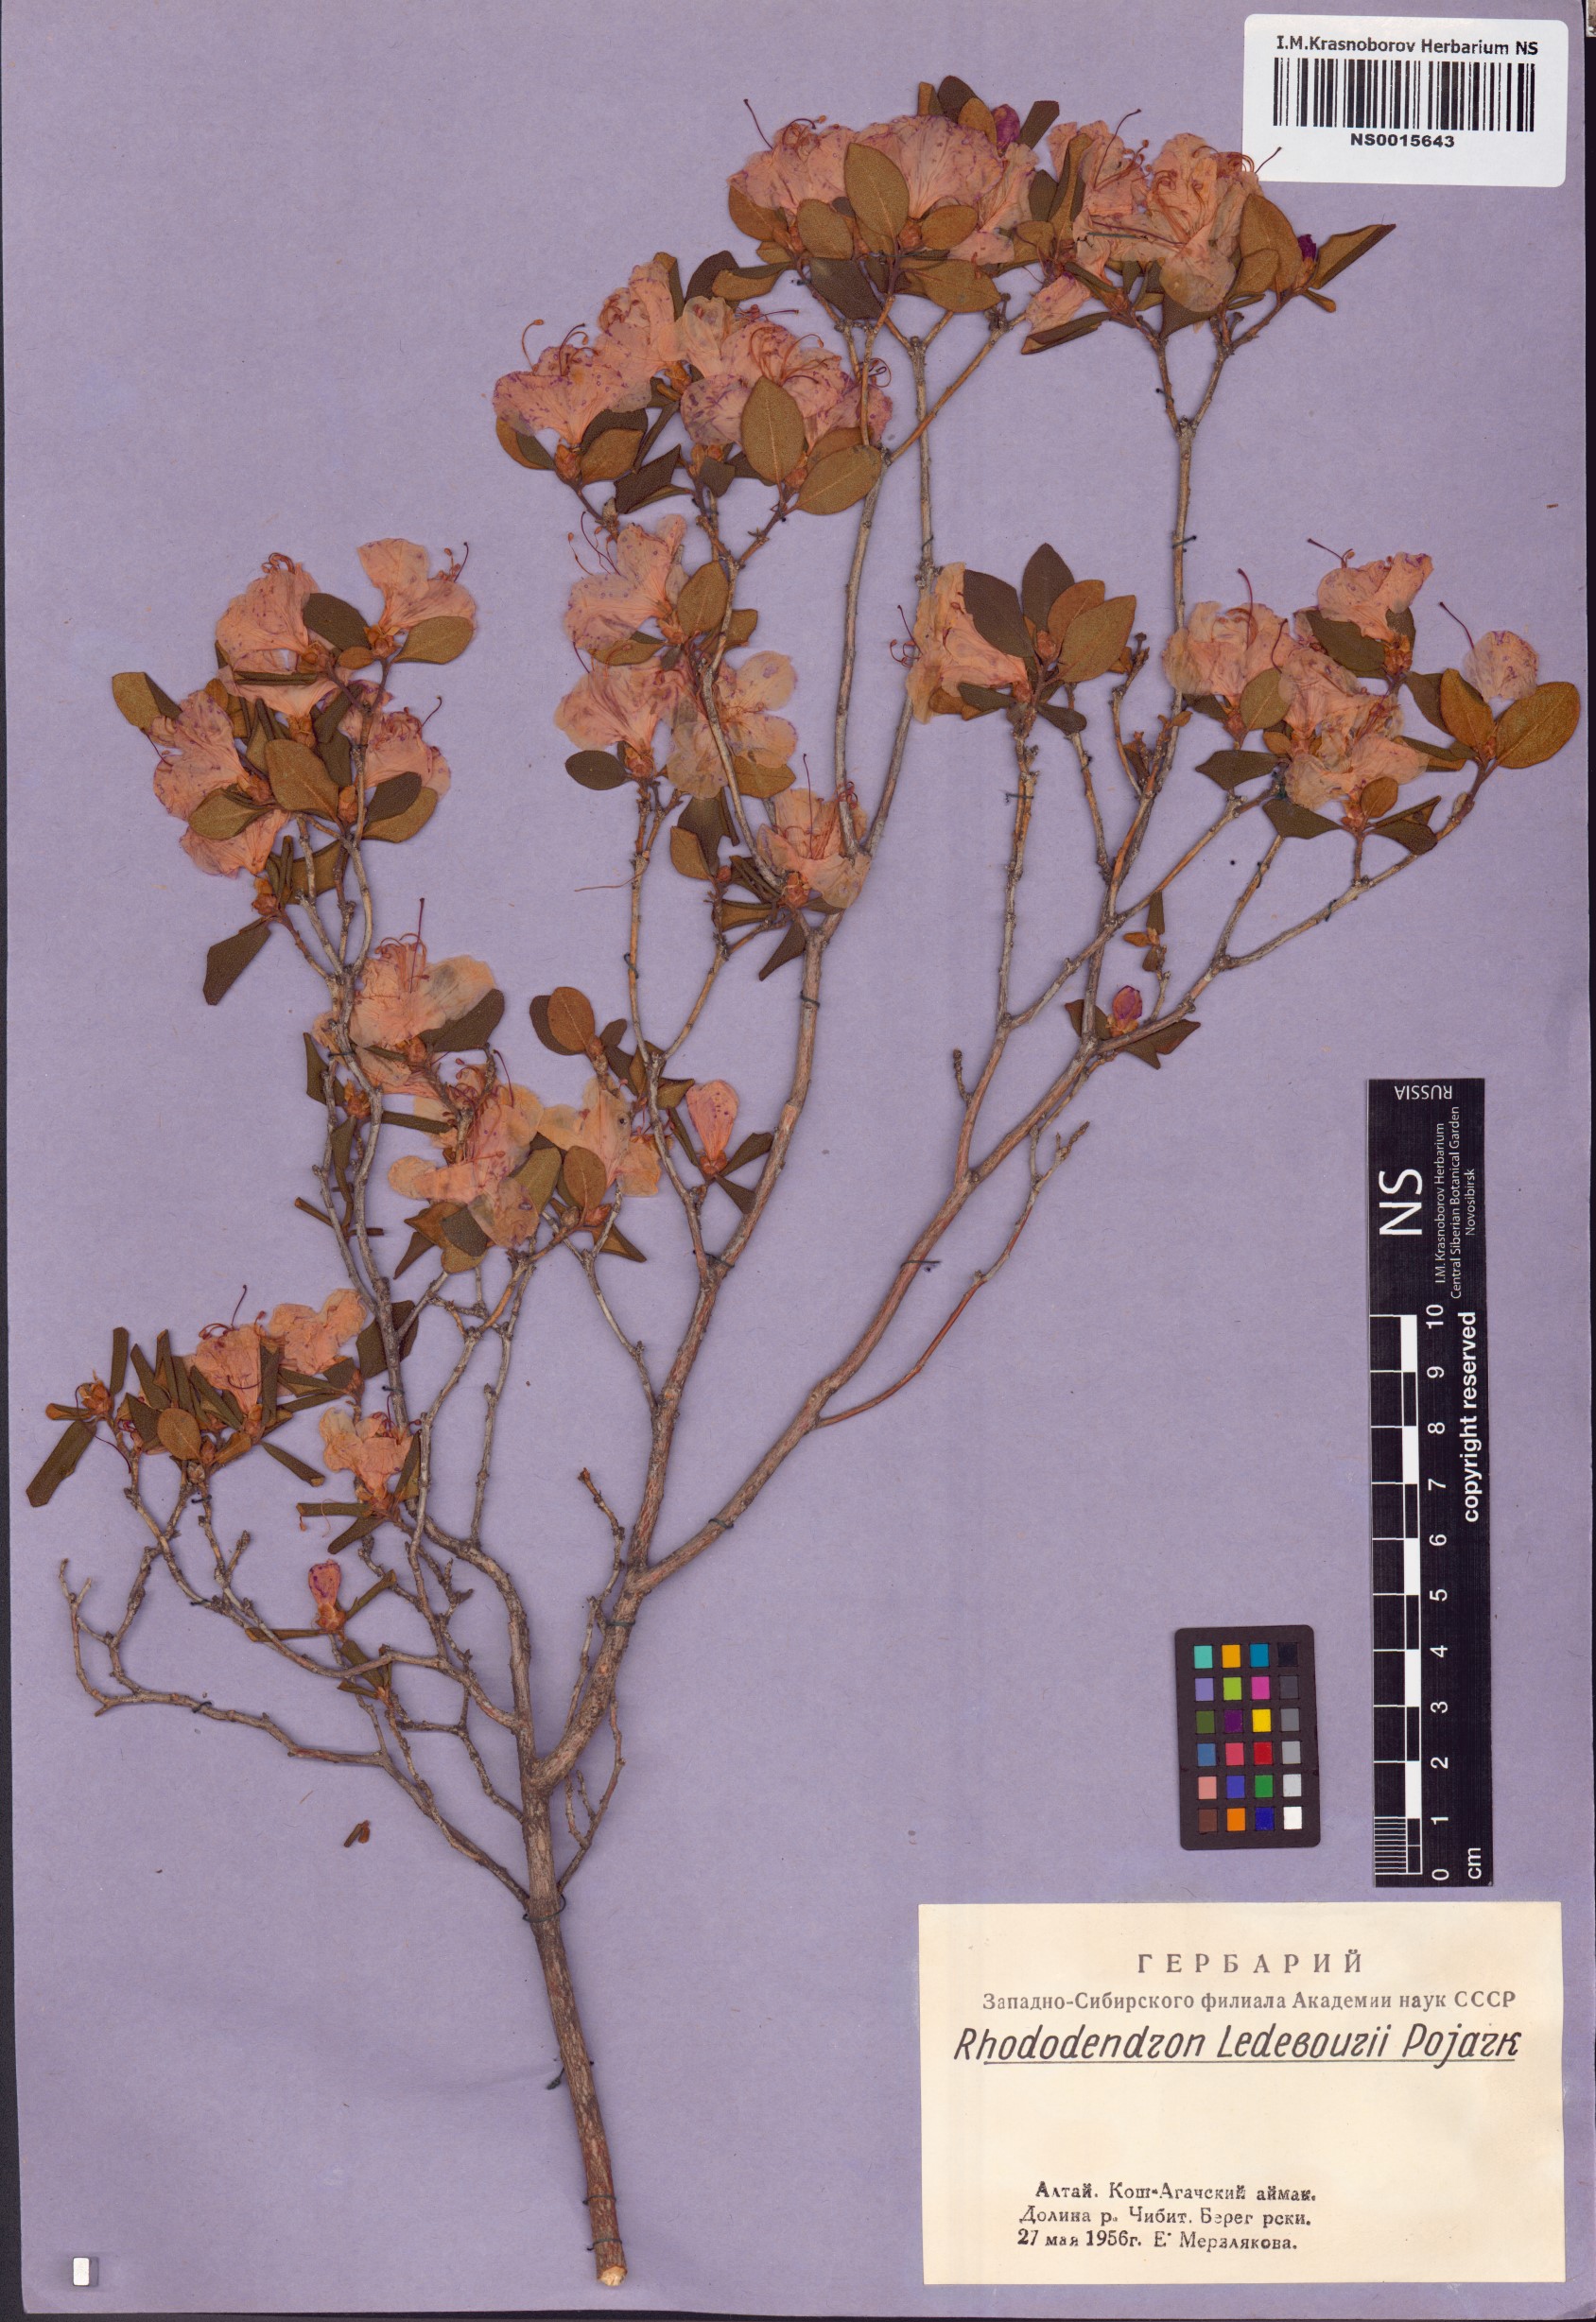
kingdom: Plantae
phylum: Tracheophyta
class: Magnoliopsida
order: Ericales
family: Ericaceae
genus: Rhododendron
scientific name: Rhododendron dauricum
